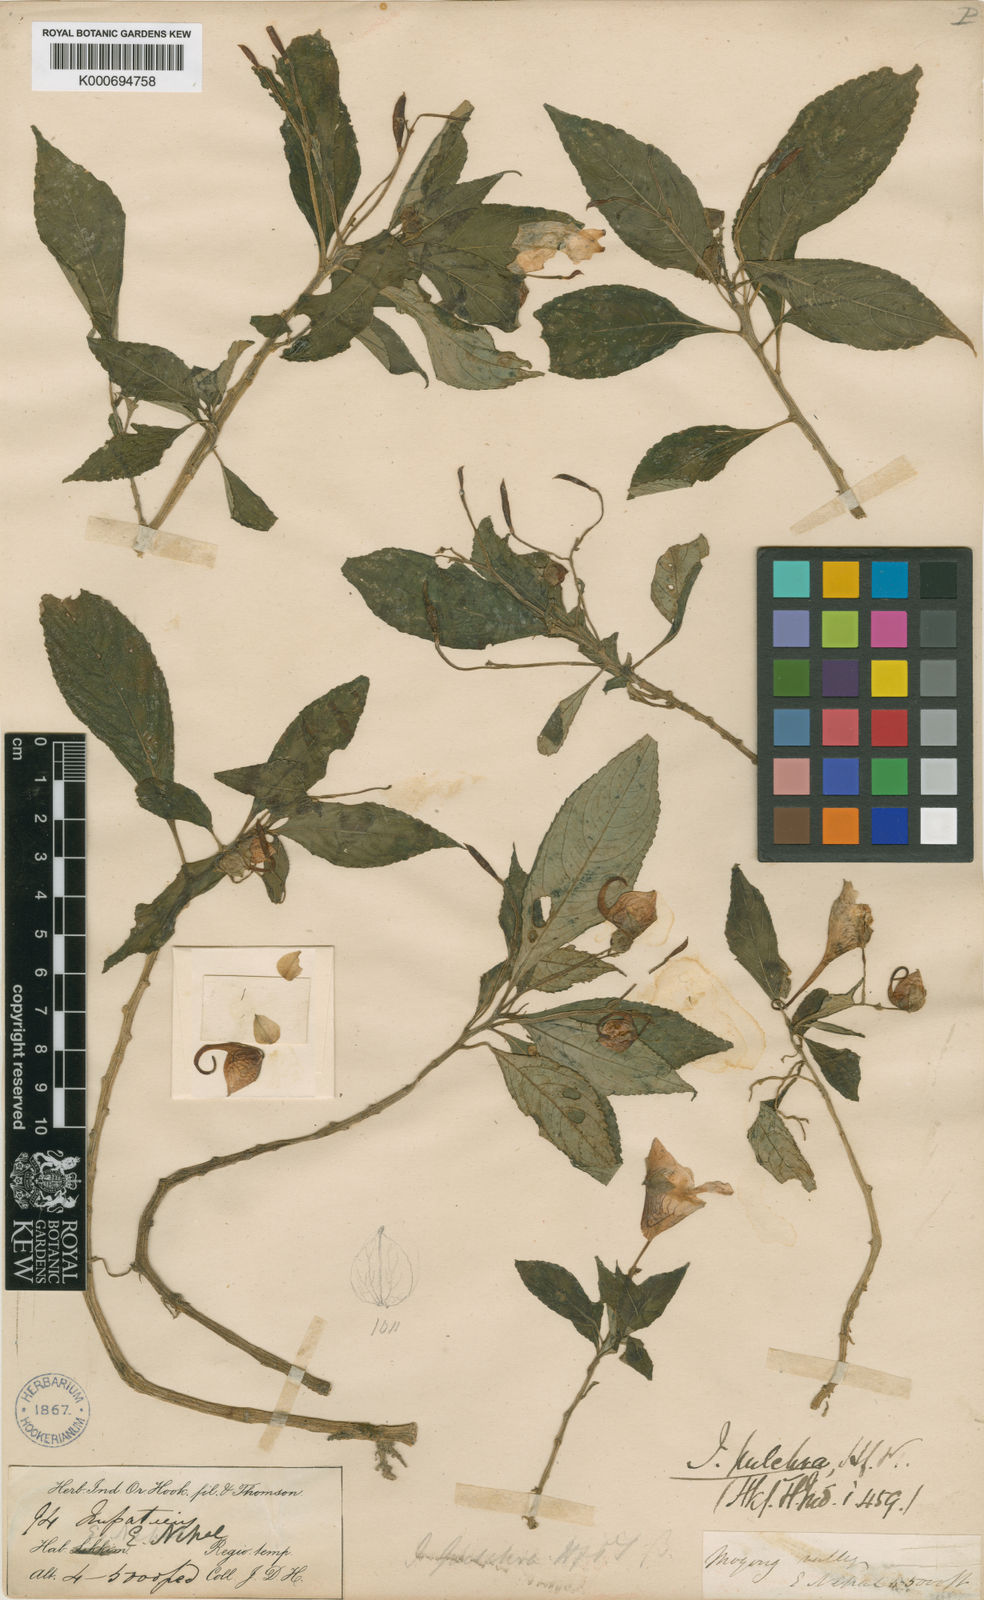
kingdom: Plantae
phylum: Tracheophyta
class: Magnoliopsida
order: Ericales
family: Balsaminaceae
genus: Impatiens
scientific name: Impatiens pulchra
